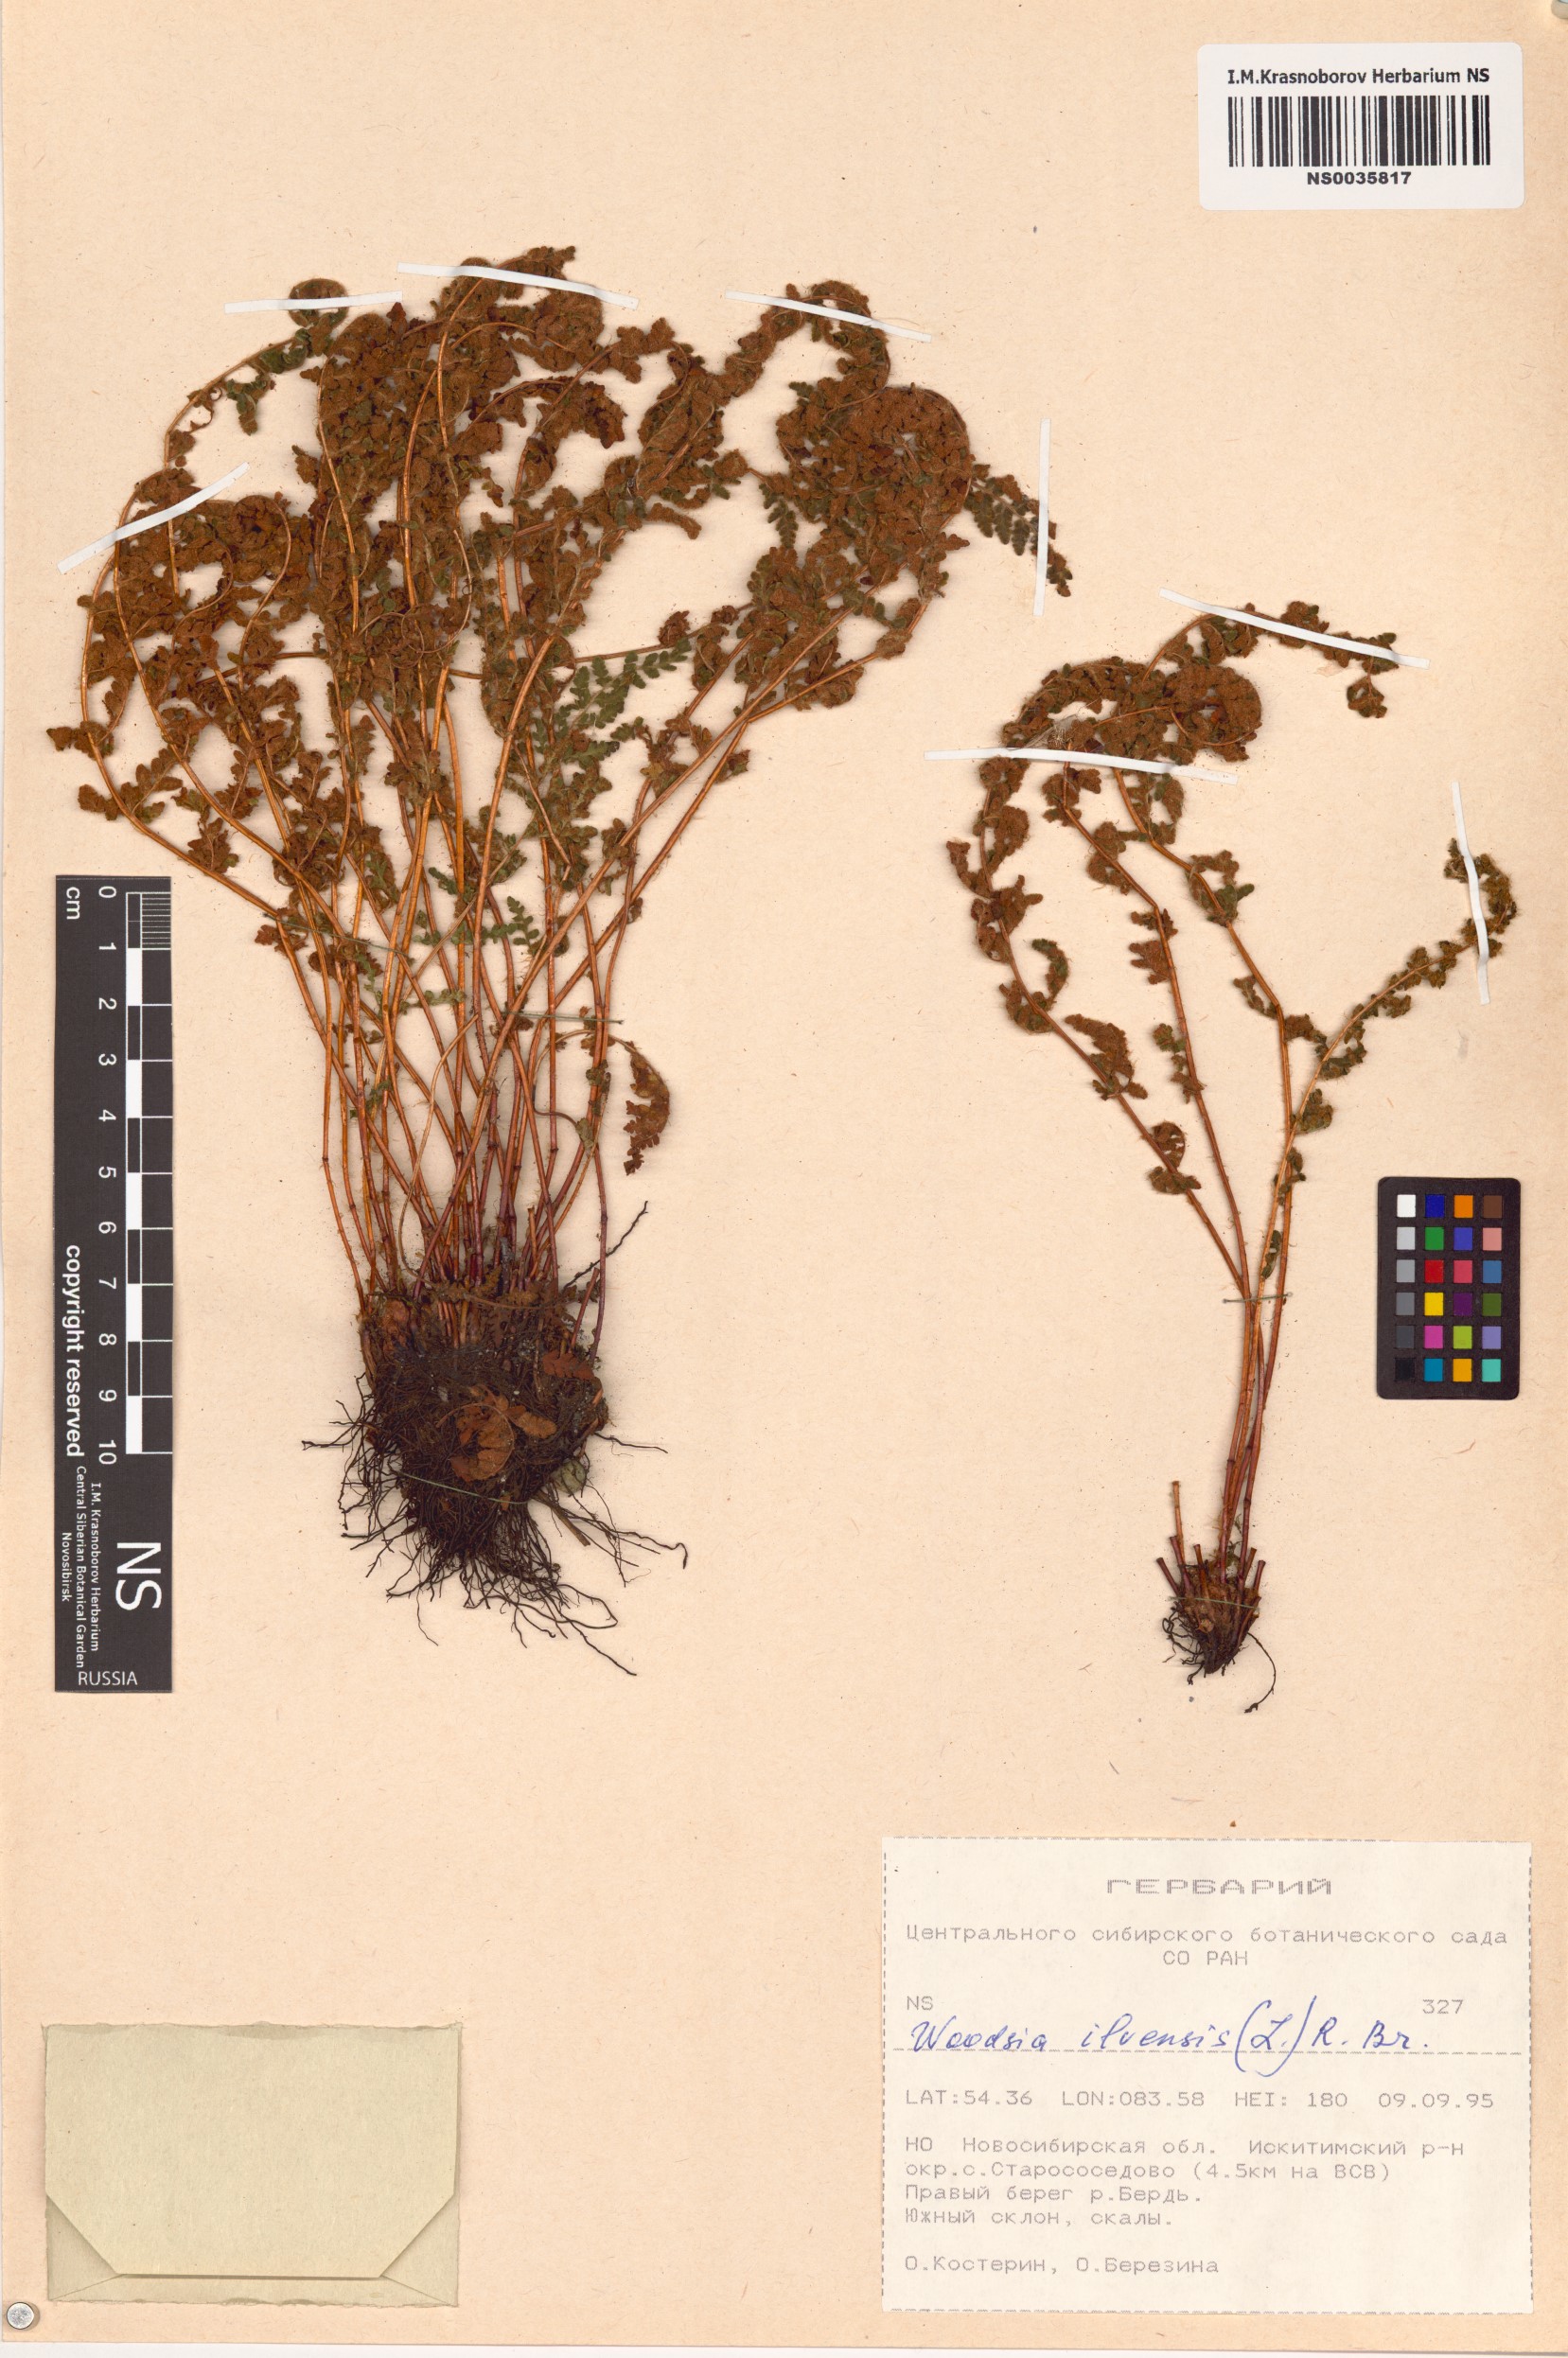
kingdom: Plantae
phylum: Tracheophyta
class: Polypodiopsida
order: Polypodiales
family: Woodsiaceae
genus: Woodsia
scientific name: Woodsia ilvensis
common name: Fragrant woodsia
